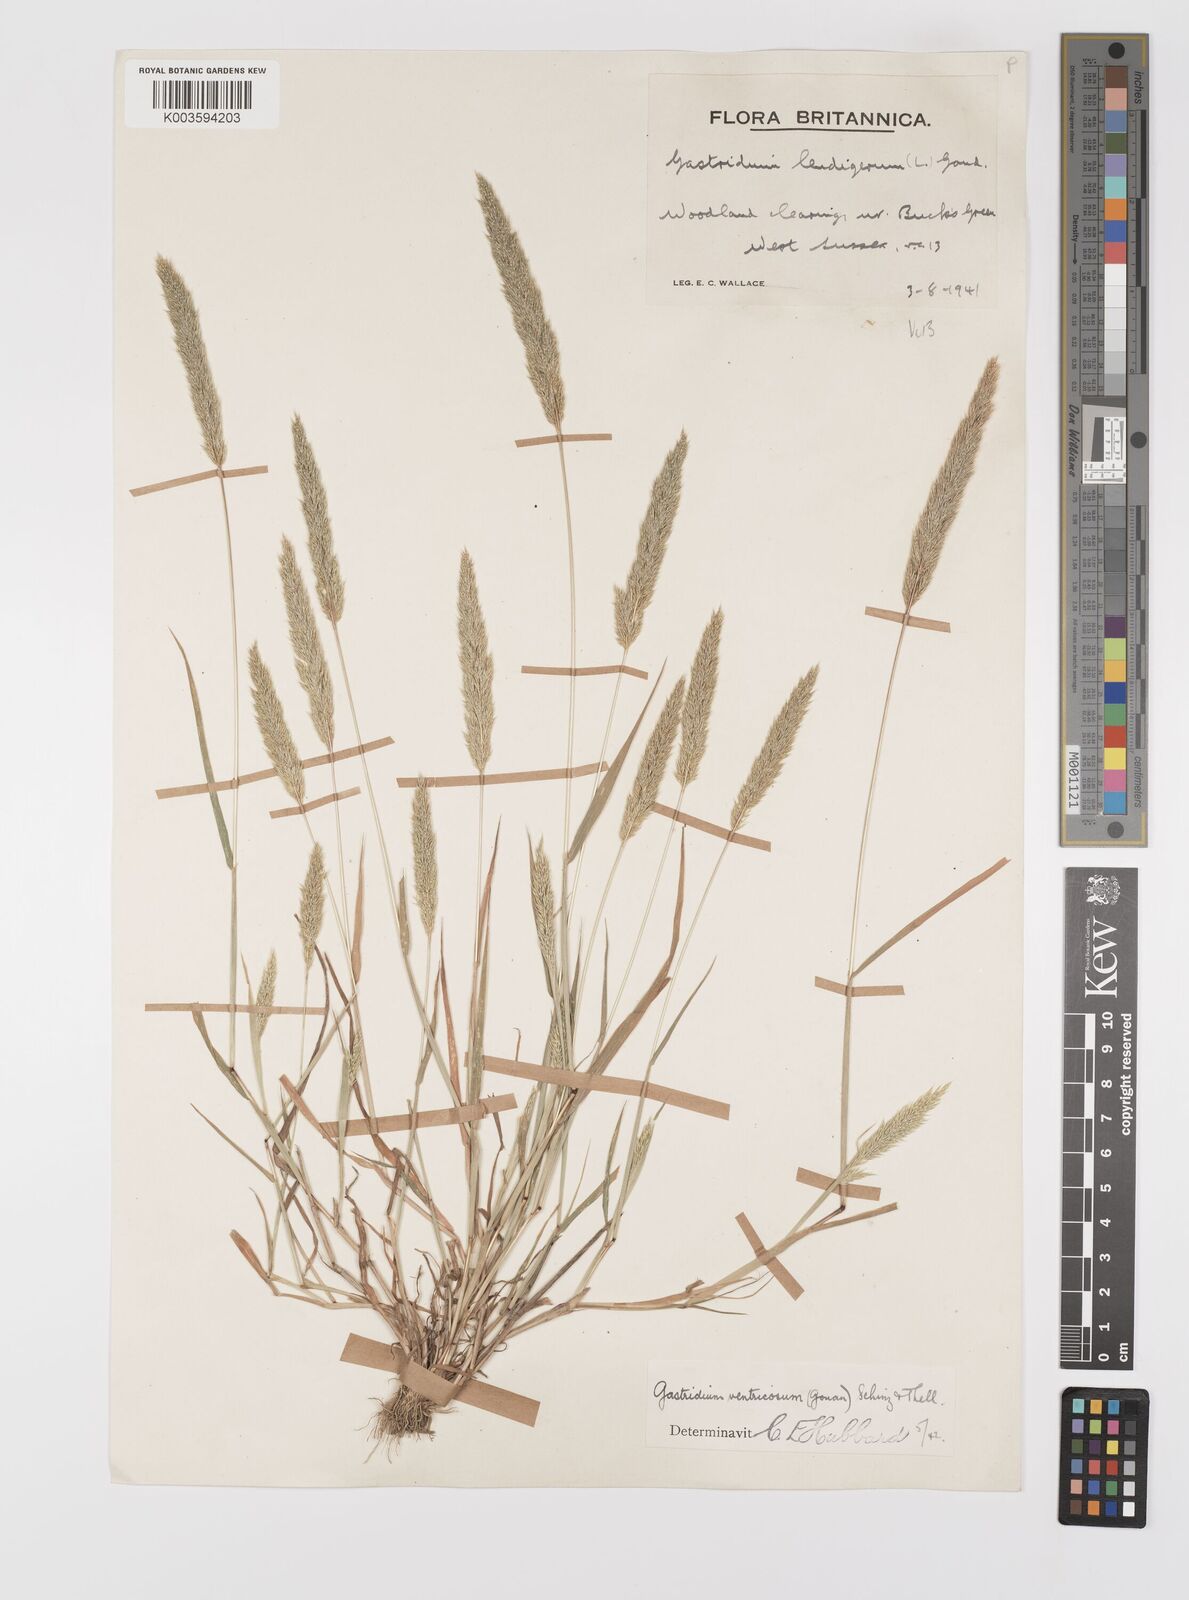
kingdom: Plantae
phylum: Tracheophyta
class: Liliopsida
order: Poales
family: Poaceae
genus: Gastridium
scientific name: Gastridium ventricosum
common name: Nit-grass
